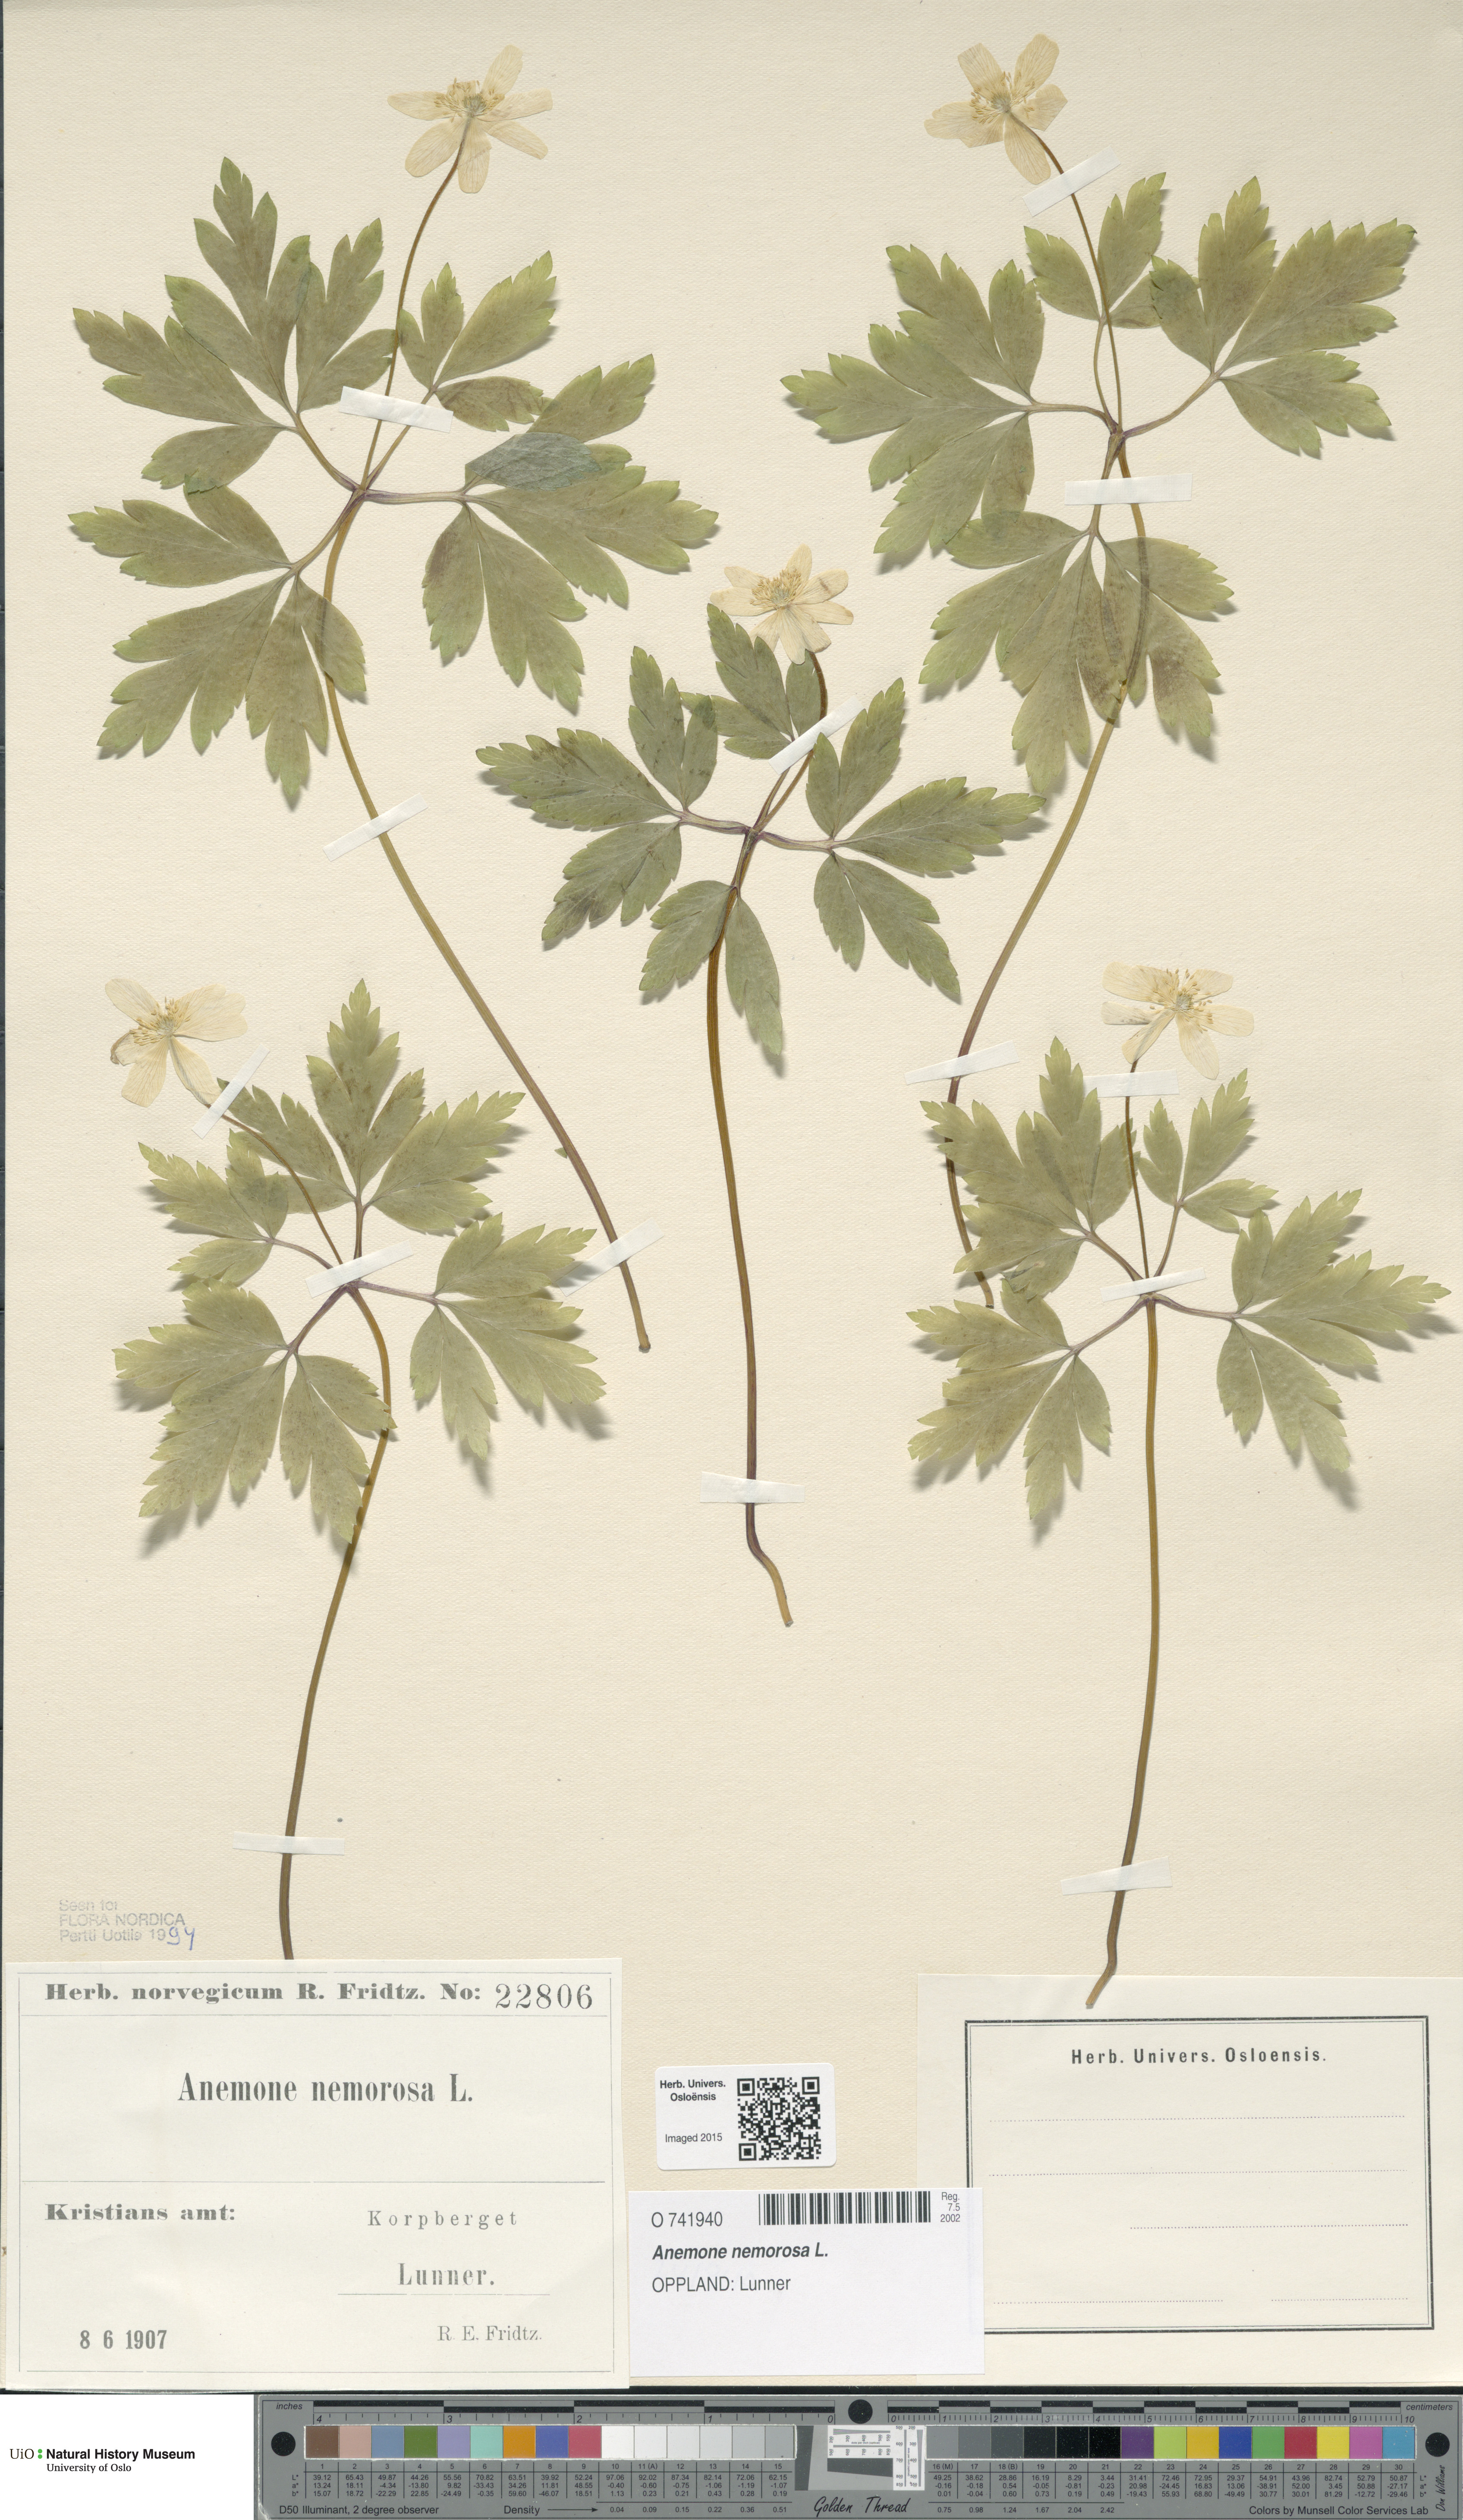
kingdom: Plantae
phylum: Tracheophyta
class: Magnoliopsida
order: Ranunculales
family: Ranunculaceae
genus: Anemone
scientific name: Anemone nemorosa
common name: Wood anemone
